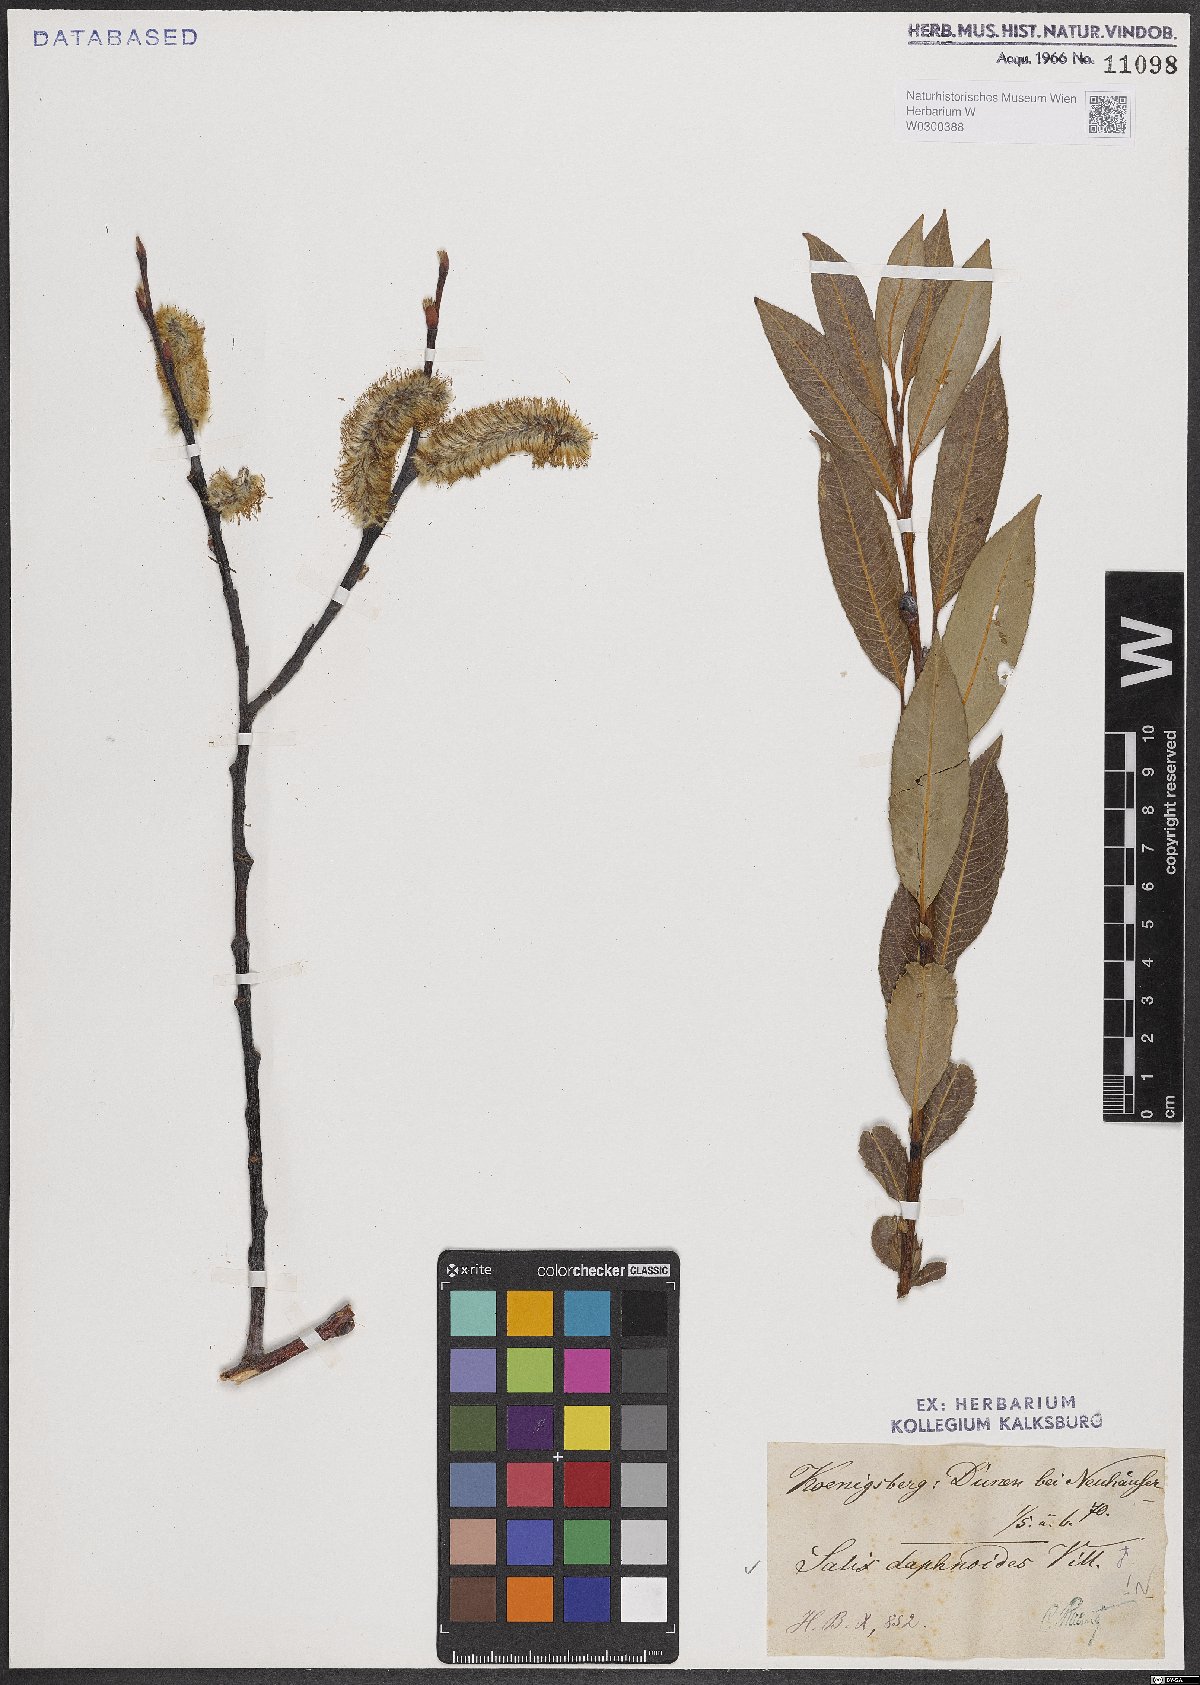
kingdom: Plantae
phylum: Tracheophyta
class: Magnoliopsida
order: Malpighiales
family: Salicaceae
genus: Salix
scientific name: Salix daphnoides
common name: European violet-willow
